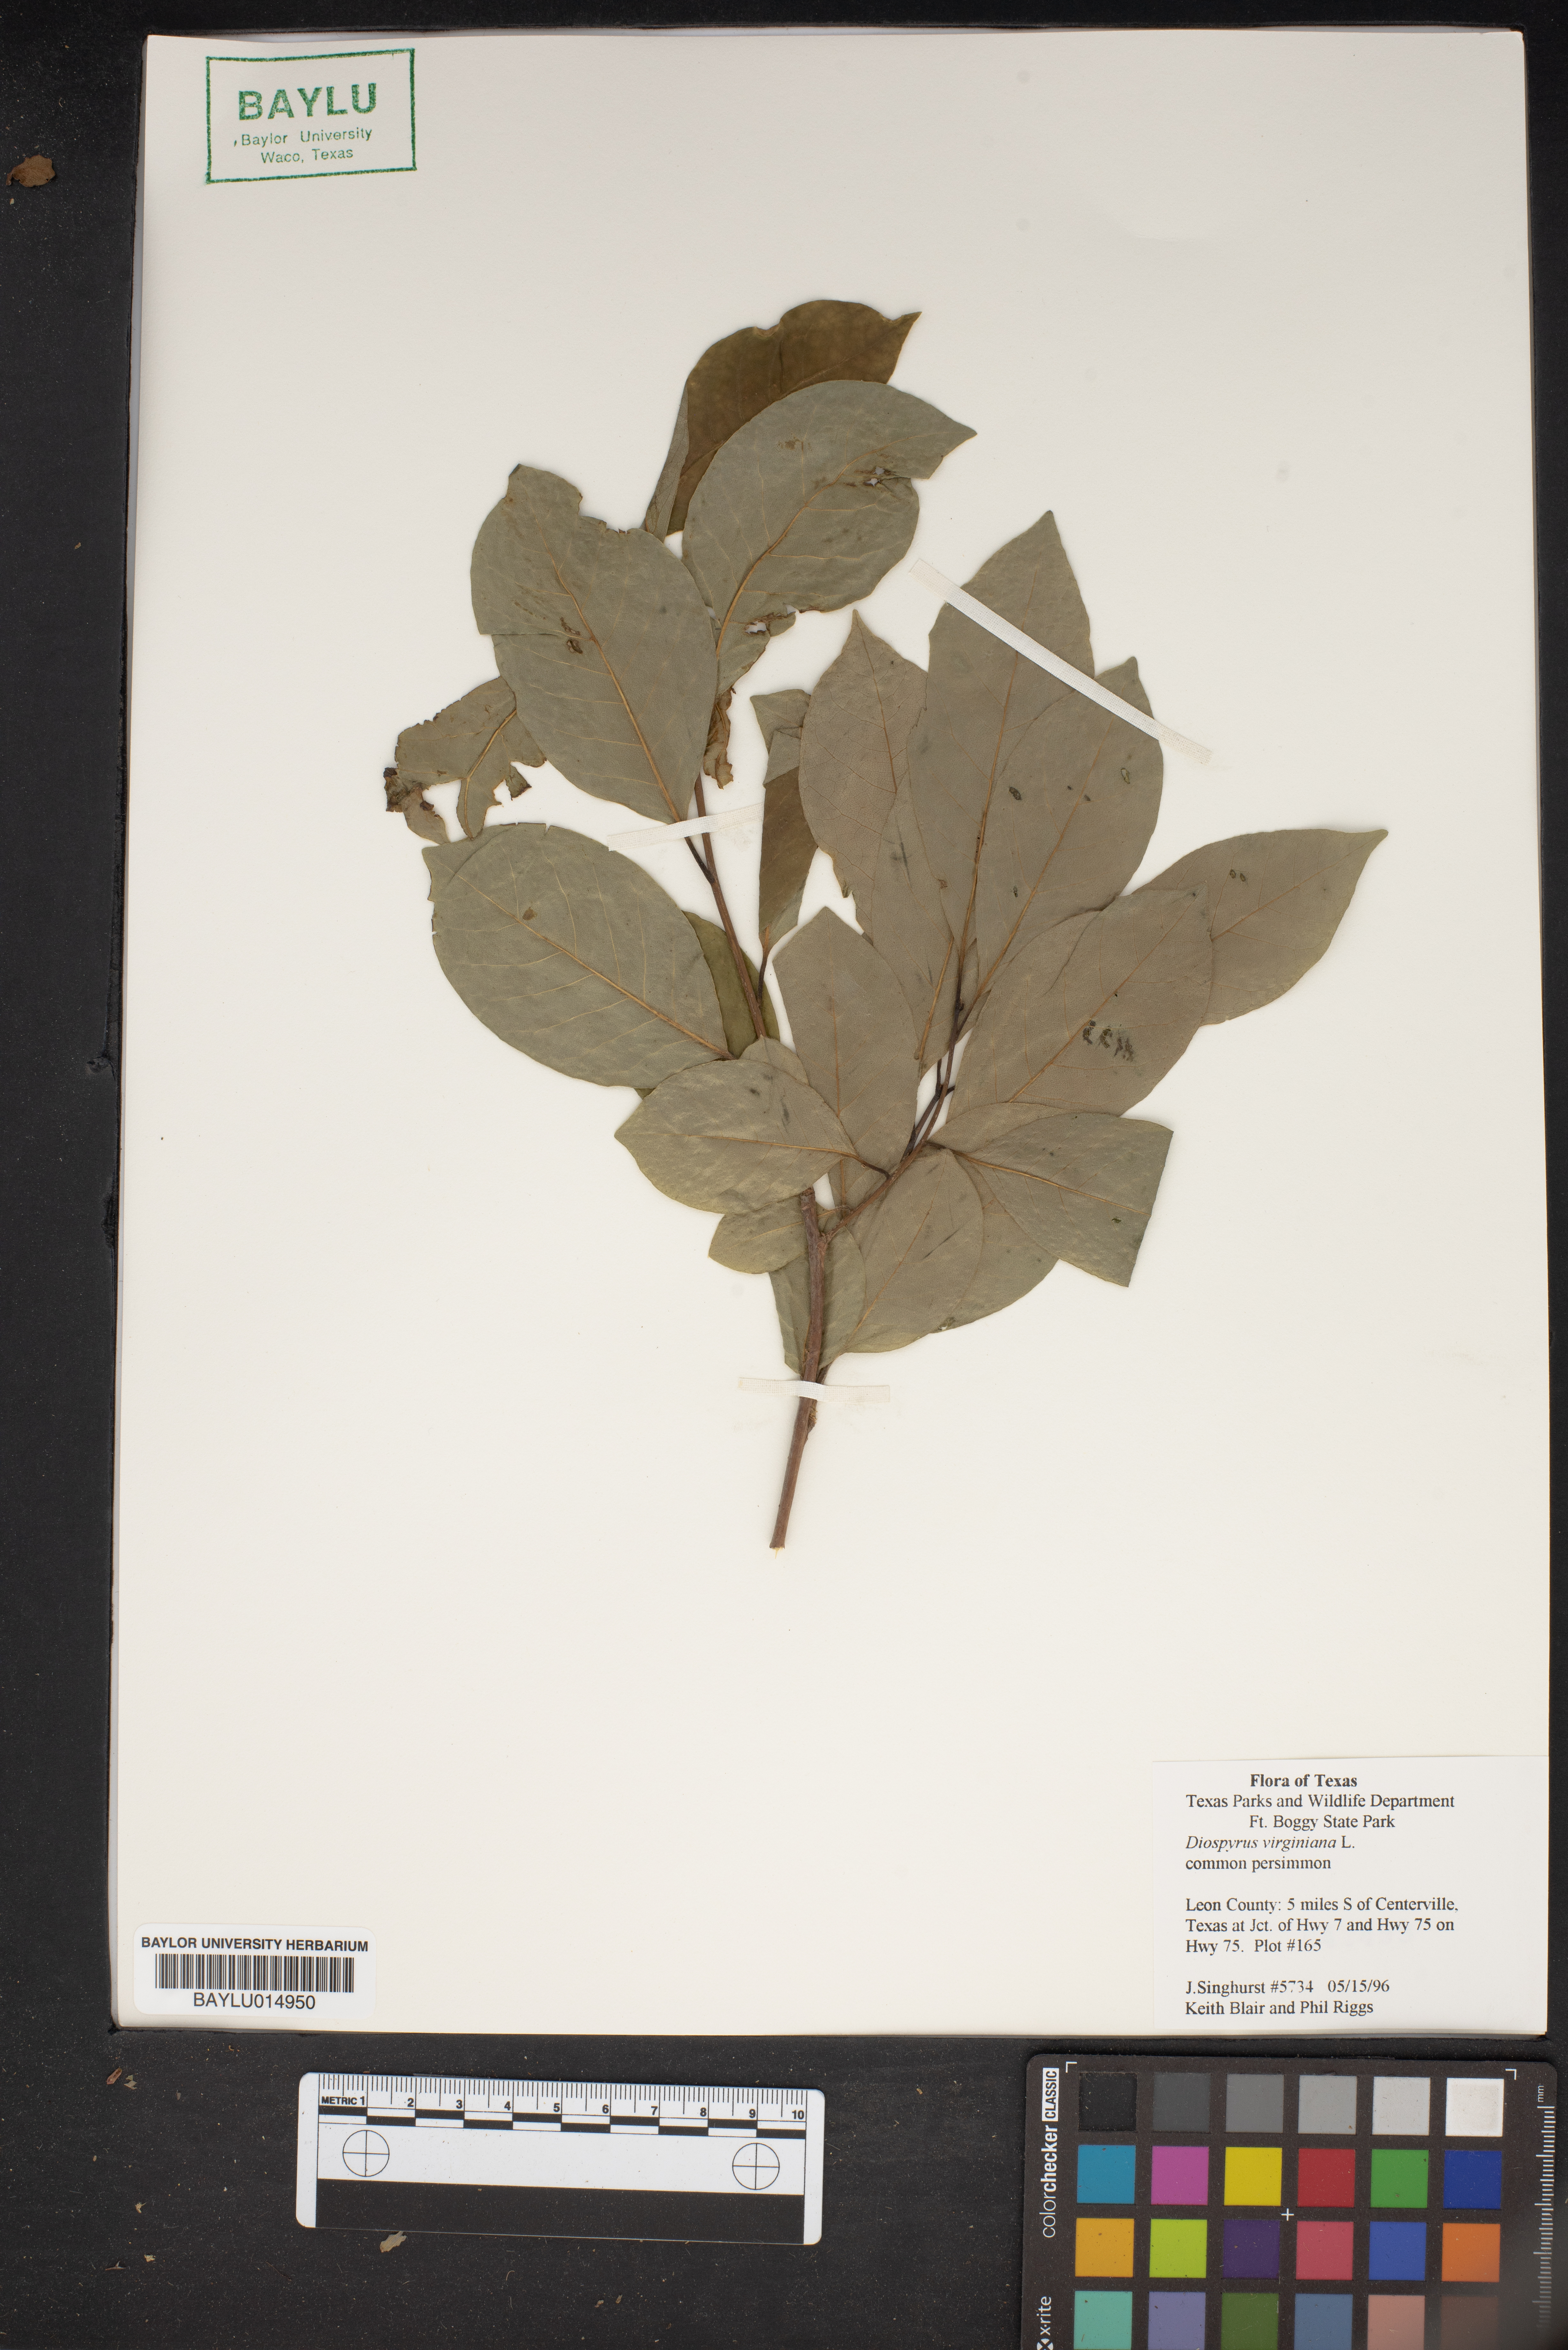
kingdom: Plantae
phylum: Tracheophyta
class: Magnoliopsida
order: Ericales
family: Ebenaceae
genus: Diospyros
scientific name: Diospyros virginiana
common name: Persimmon
